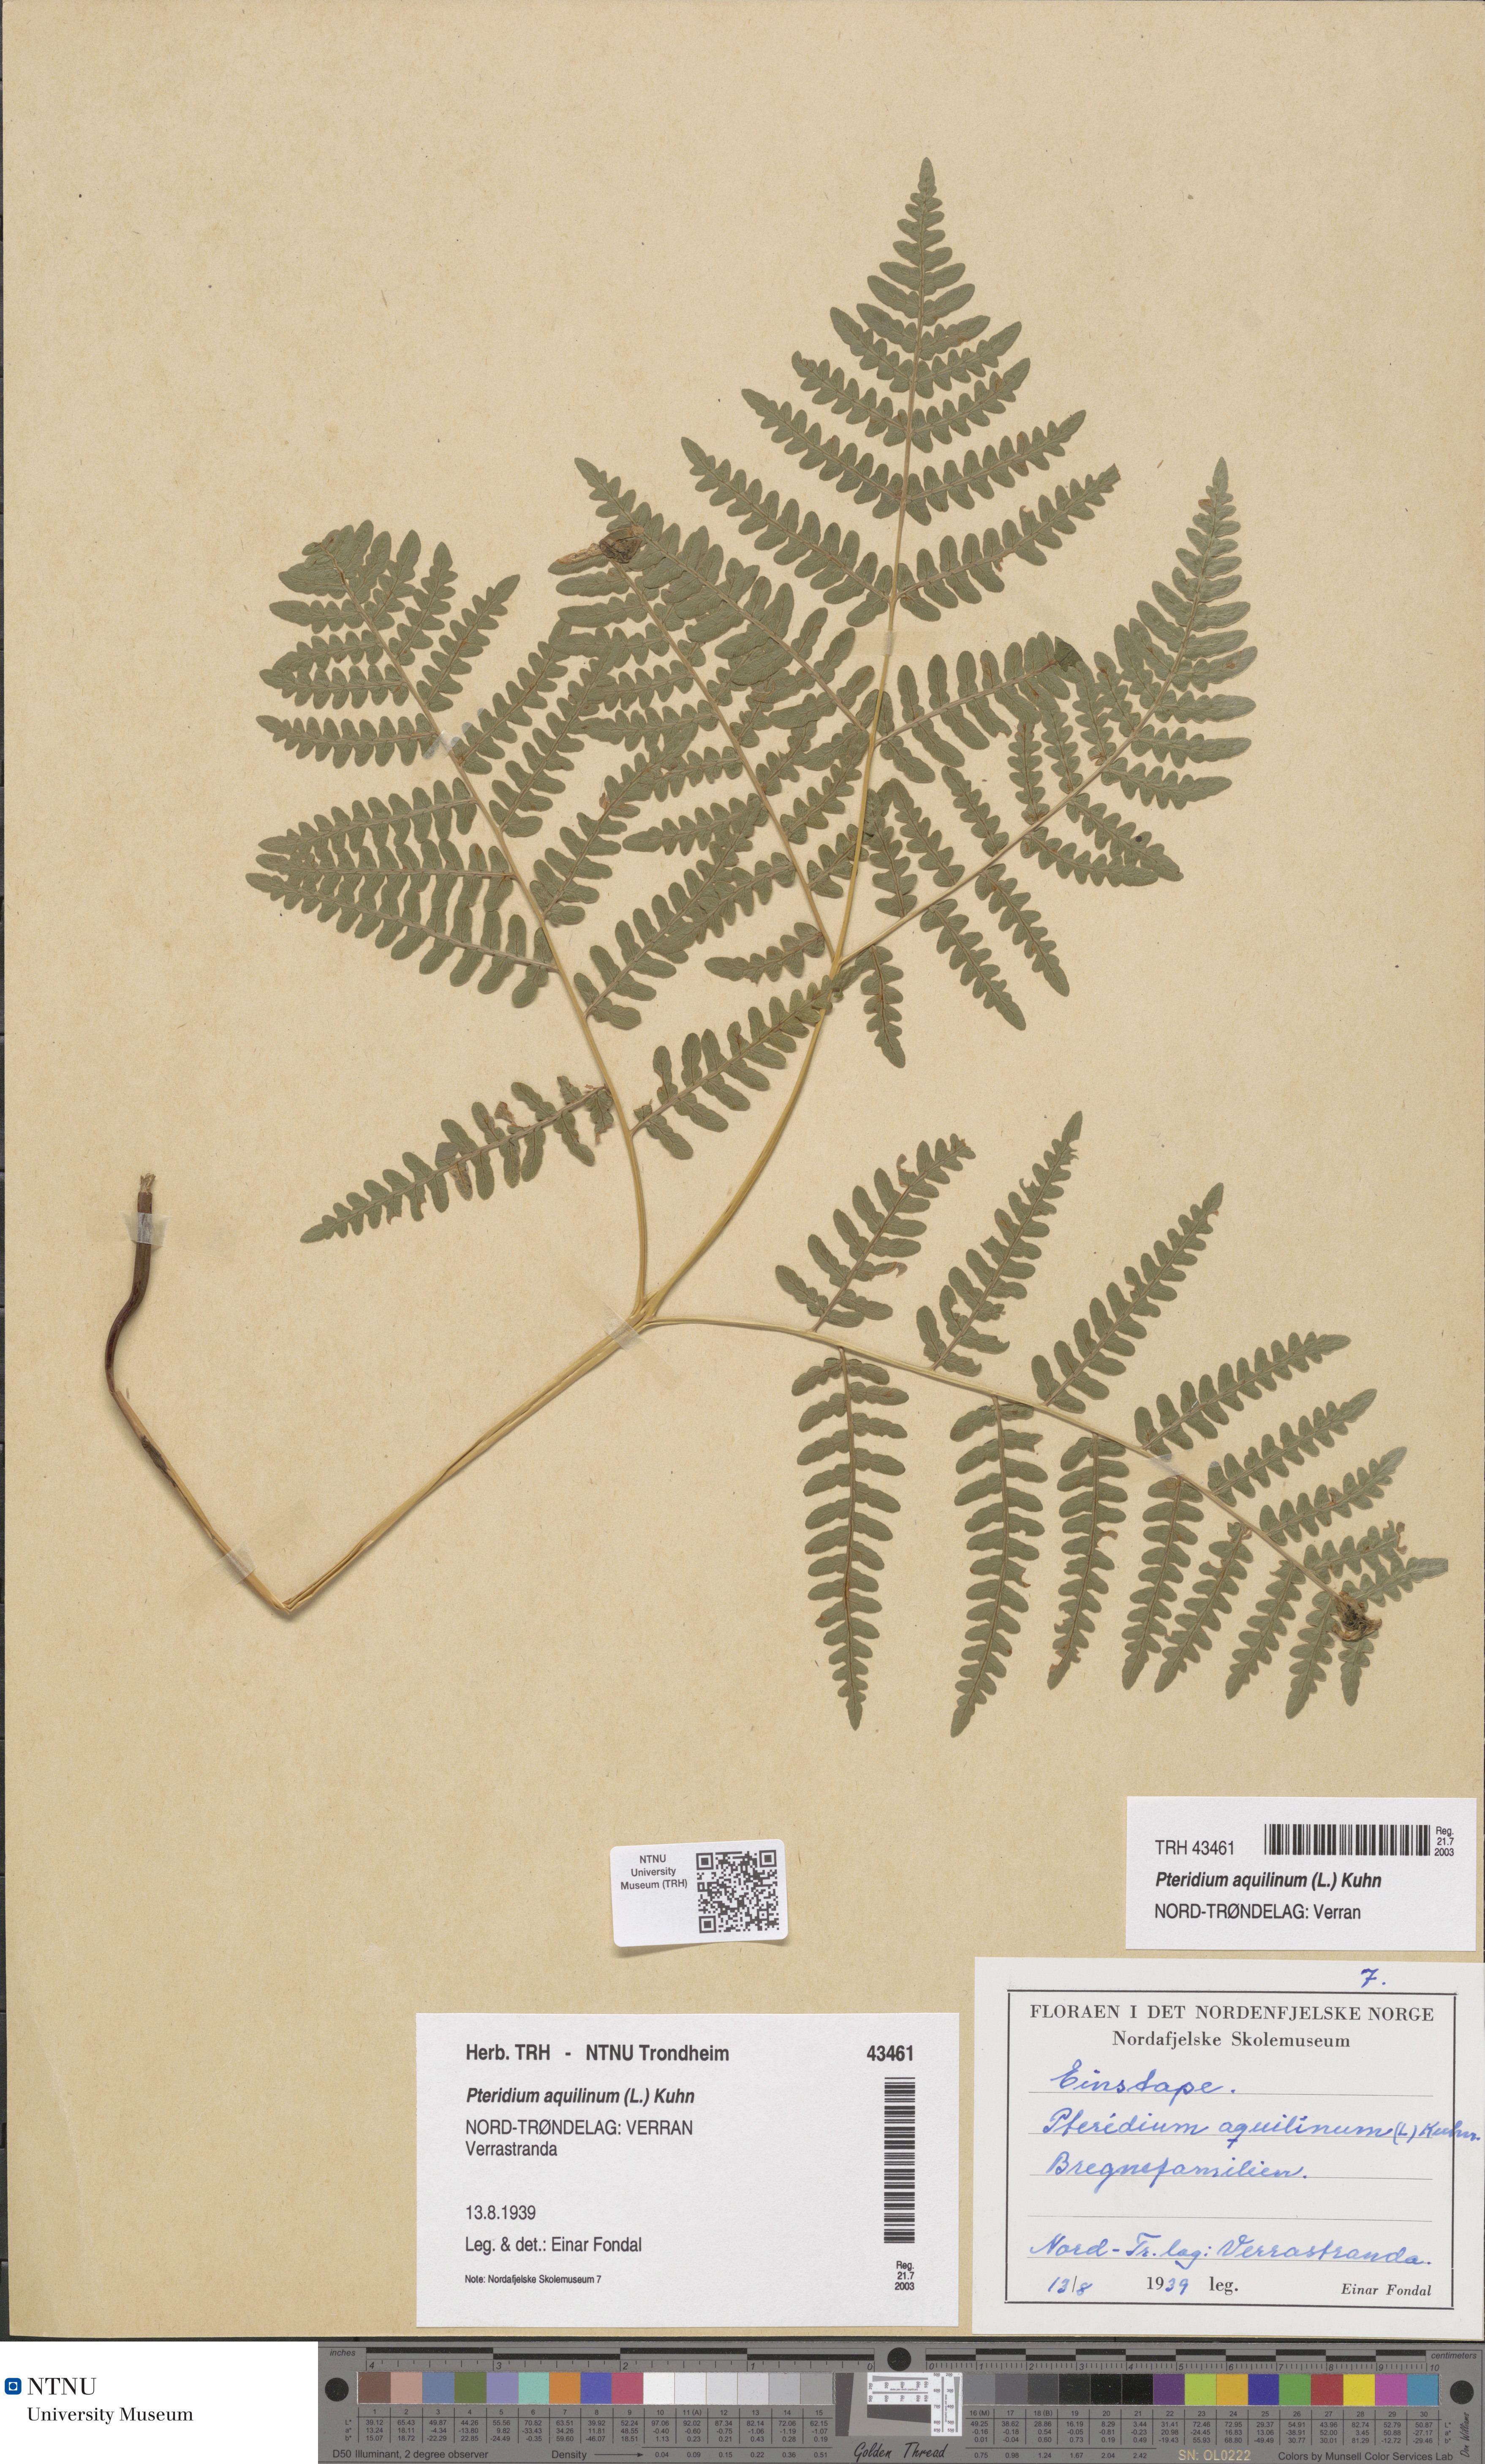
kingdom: Plantae
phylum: Tracheophyta
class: Polypodiopsida
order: Polypodiales
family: Dennstaedtiaceae
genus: Pteridium
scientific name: Pteridium aquilinum
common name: Bracken
